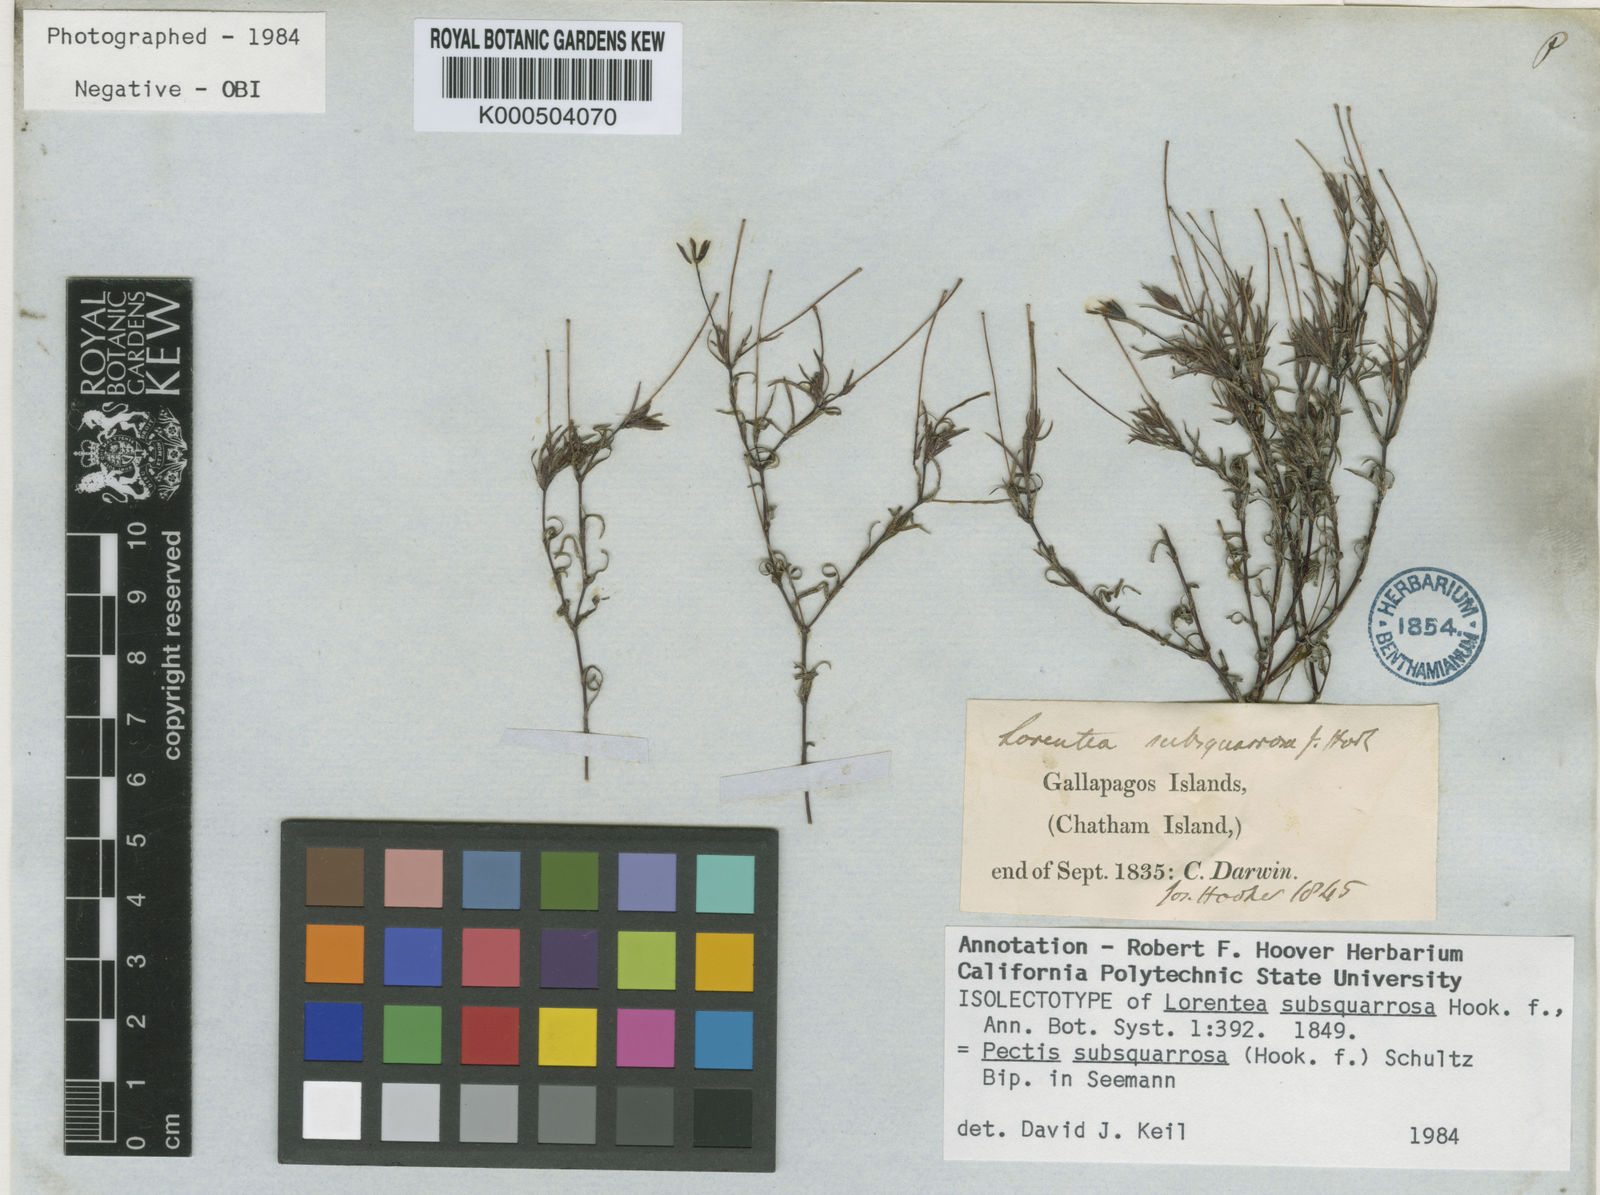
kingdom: Plantae
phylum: Tracheophyta
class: Magnoliopsida
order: Asterales
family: Asteraceae
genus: Pectis
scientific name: Pectis subsquarrosa
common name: Pectis
